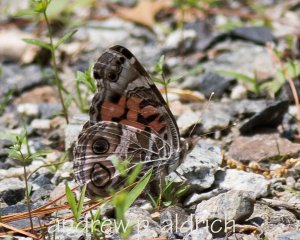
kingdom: Animalia
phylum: Arthropoda
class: Insecta
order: Lepidoptera
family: Nymphalidae
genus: Vanessa
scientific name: Vanessa virginiensis
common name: American Lady
